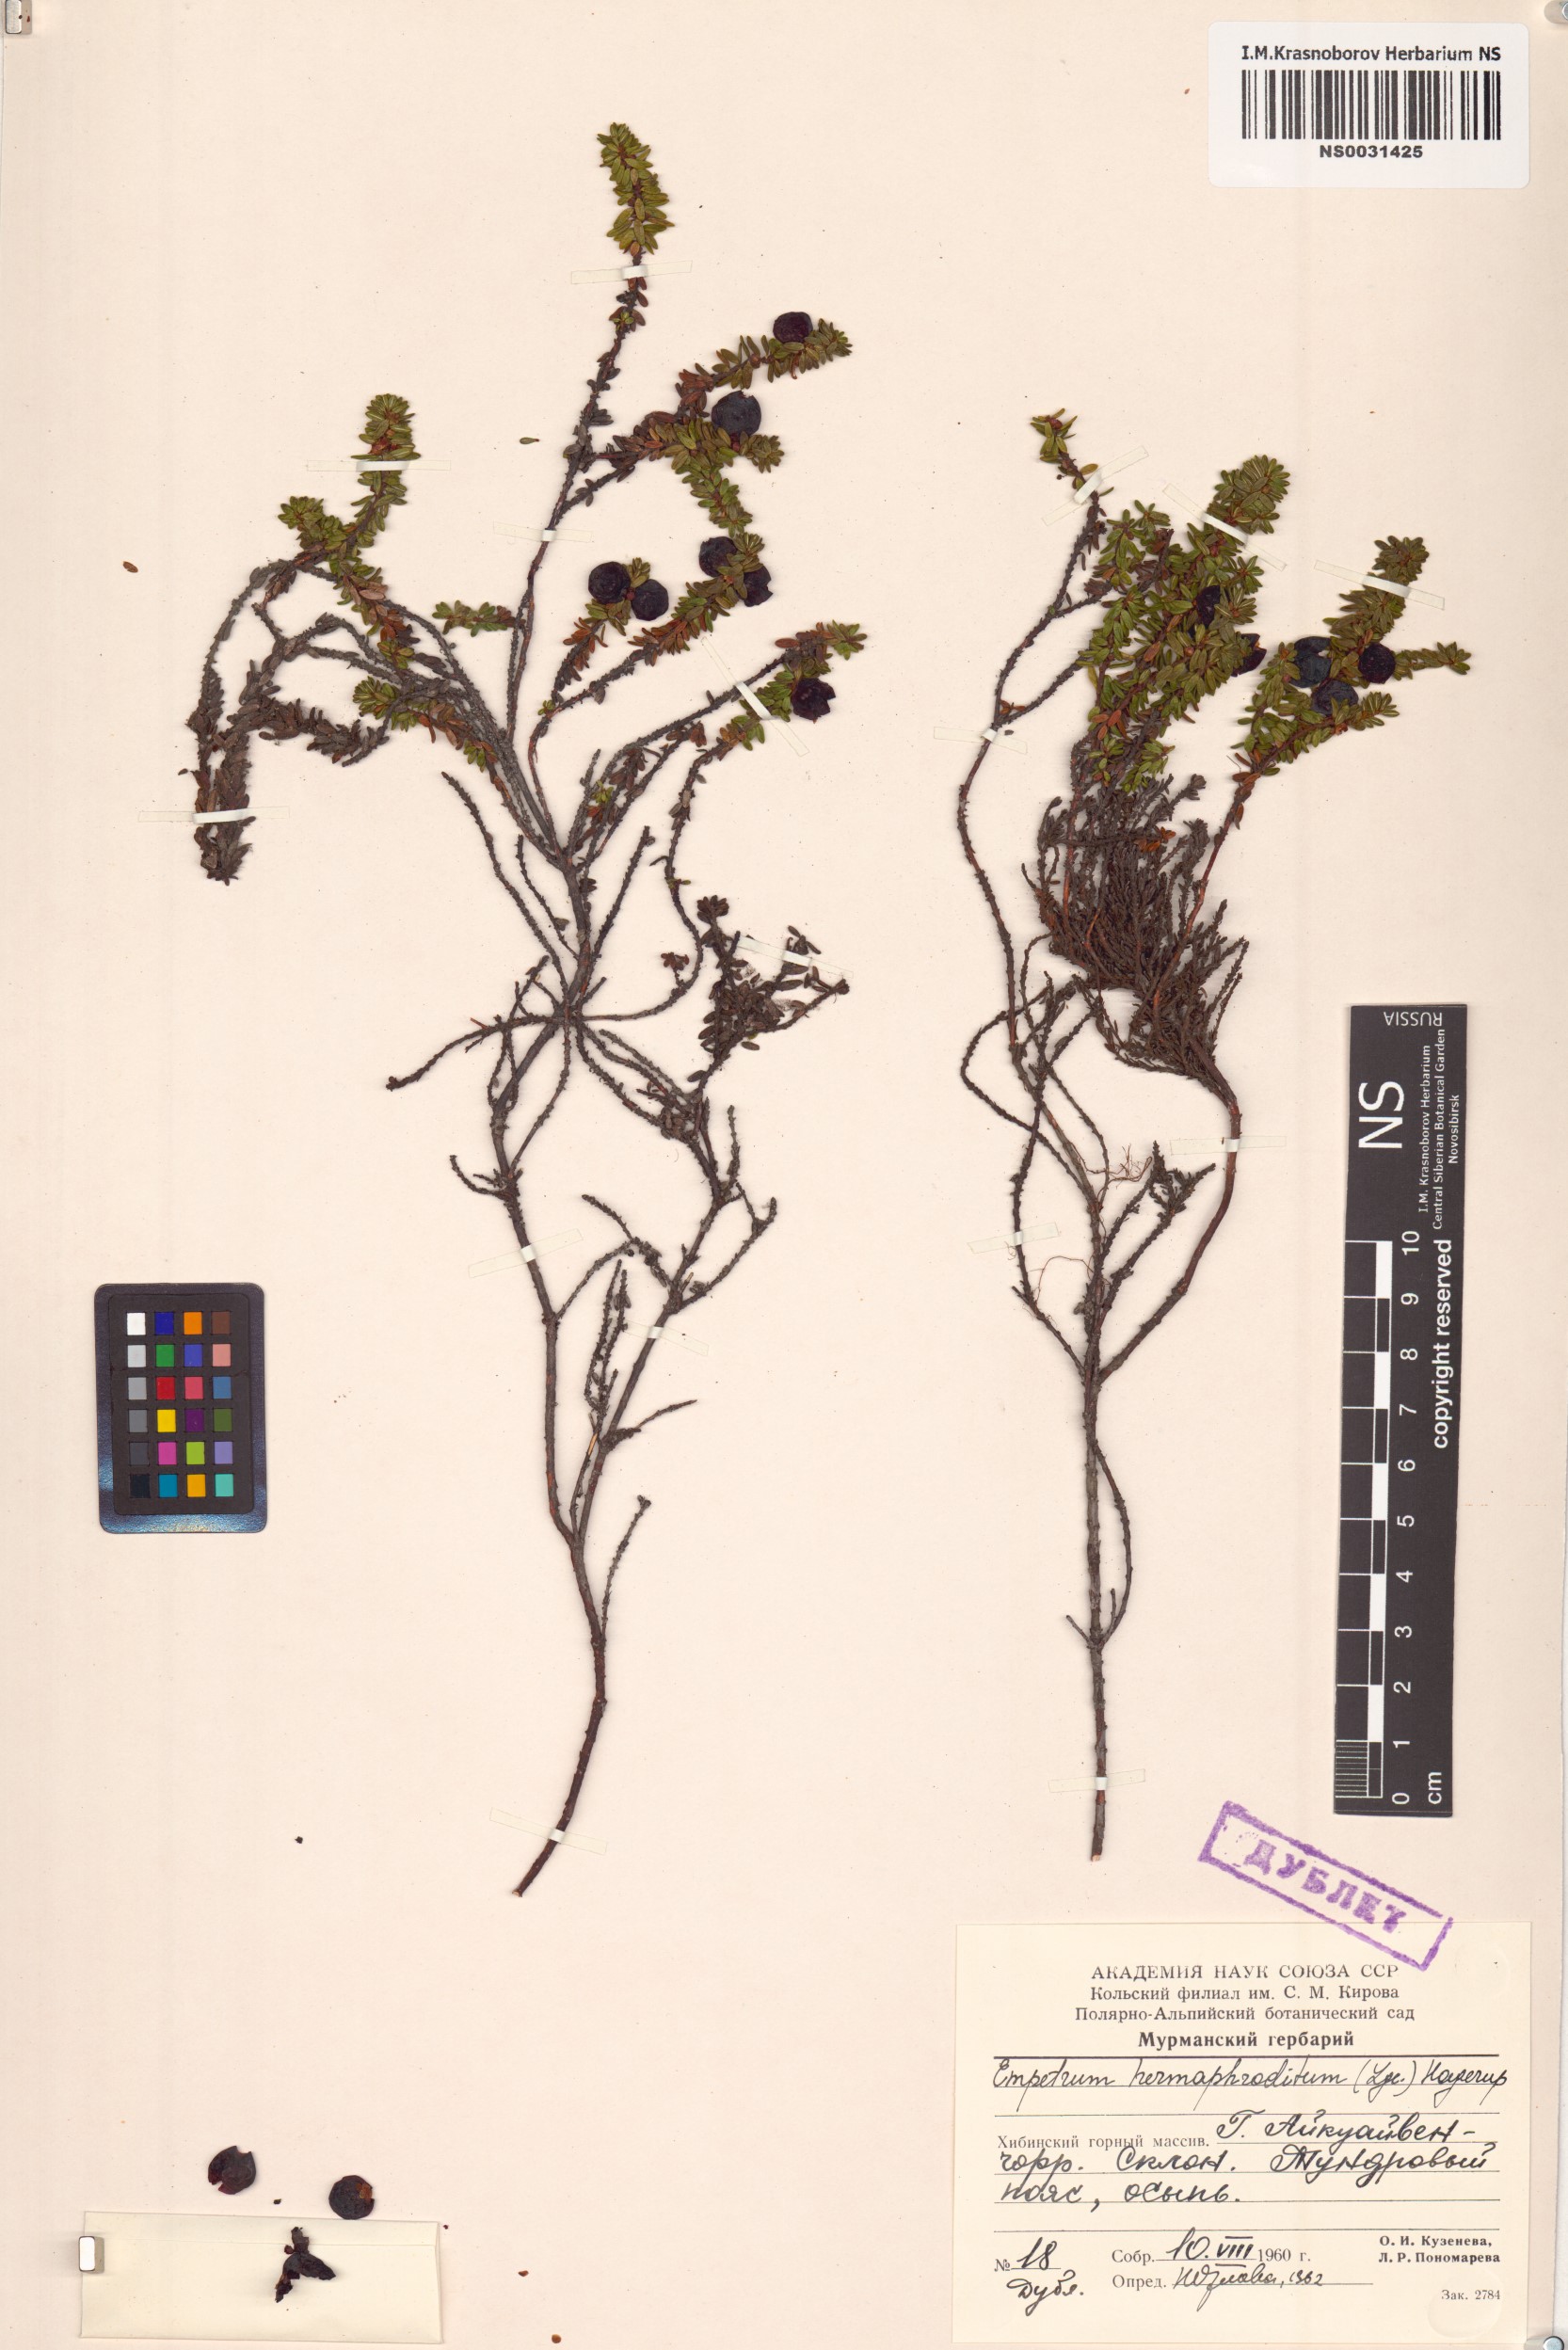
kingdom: Plantae
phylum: Tracheophyta
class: Magnoliopsida
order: Ericales
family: Ericaceae
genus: Empetrum
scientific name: Empetrum hermaphroditum
